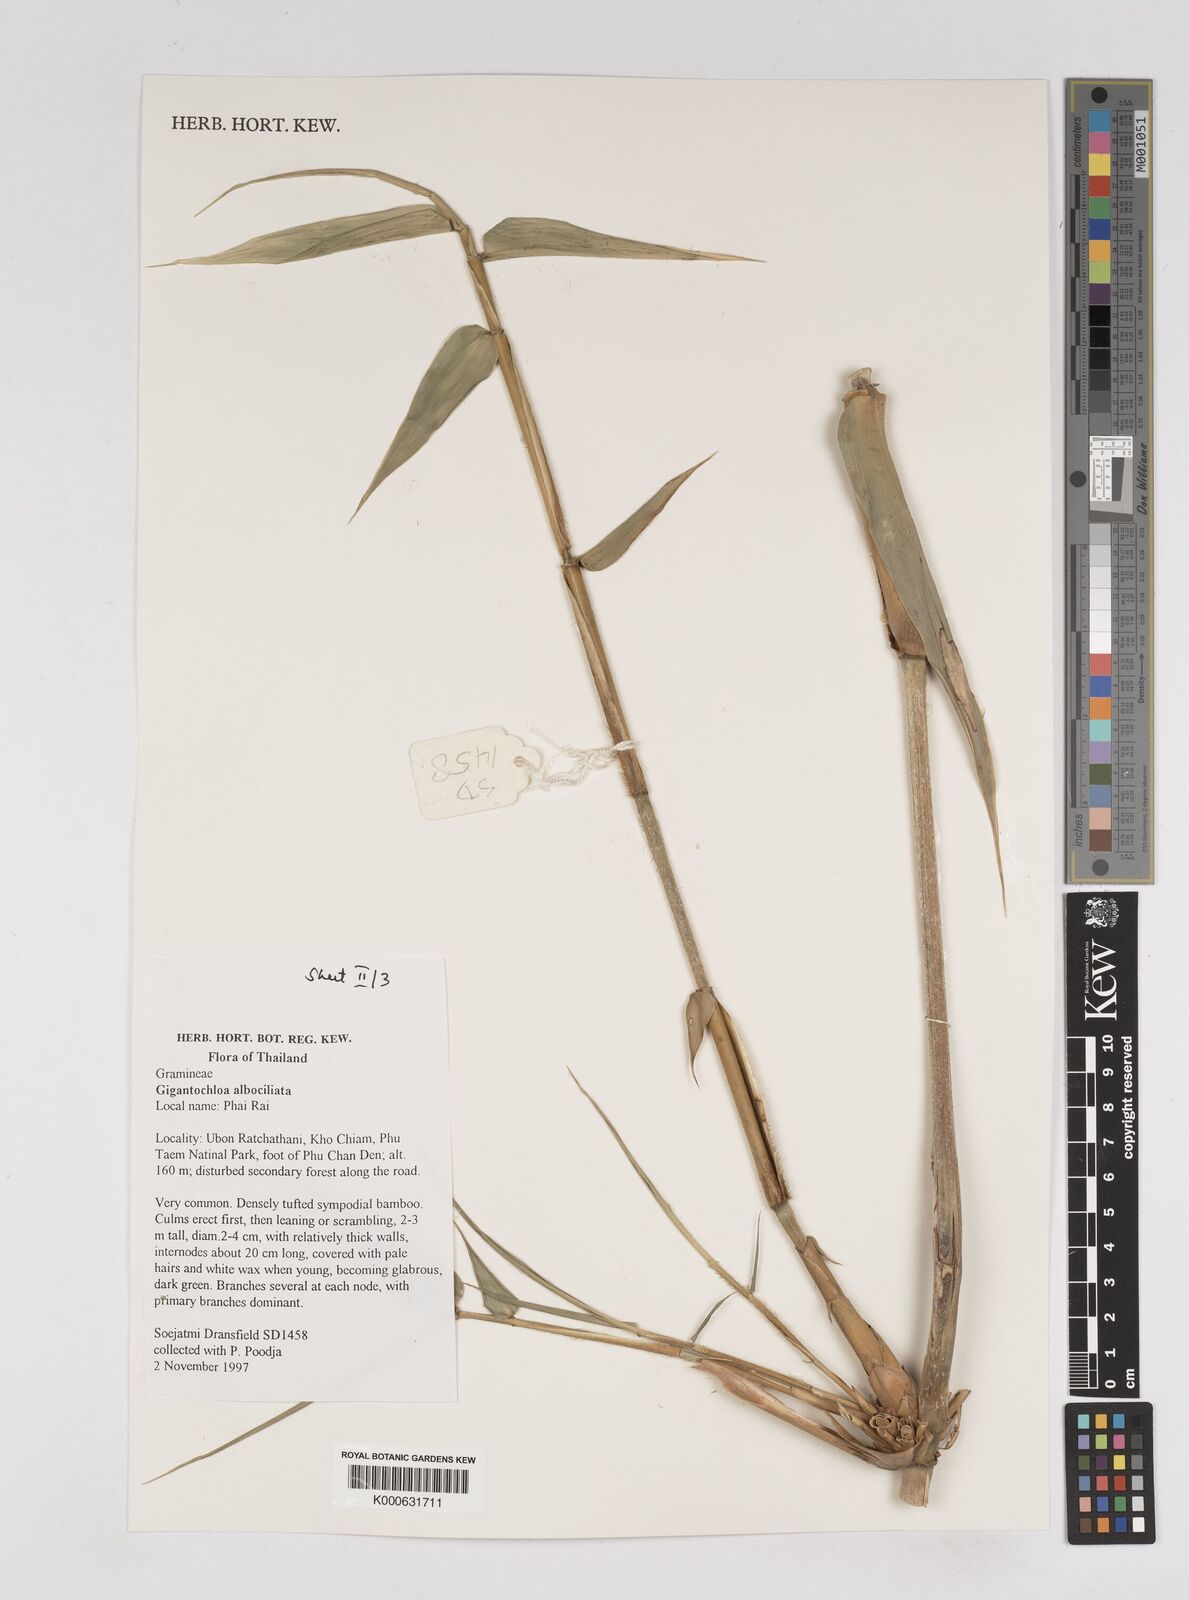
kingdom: Plantae
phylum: Tracheophyta
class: Liliopsida
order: Poales
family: Poaceae
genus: Gigantochloa
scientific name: Gigantochloa albociliata
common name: White-fringe gigantochloa
